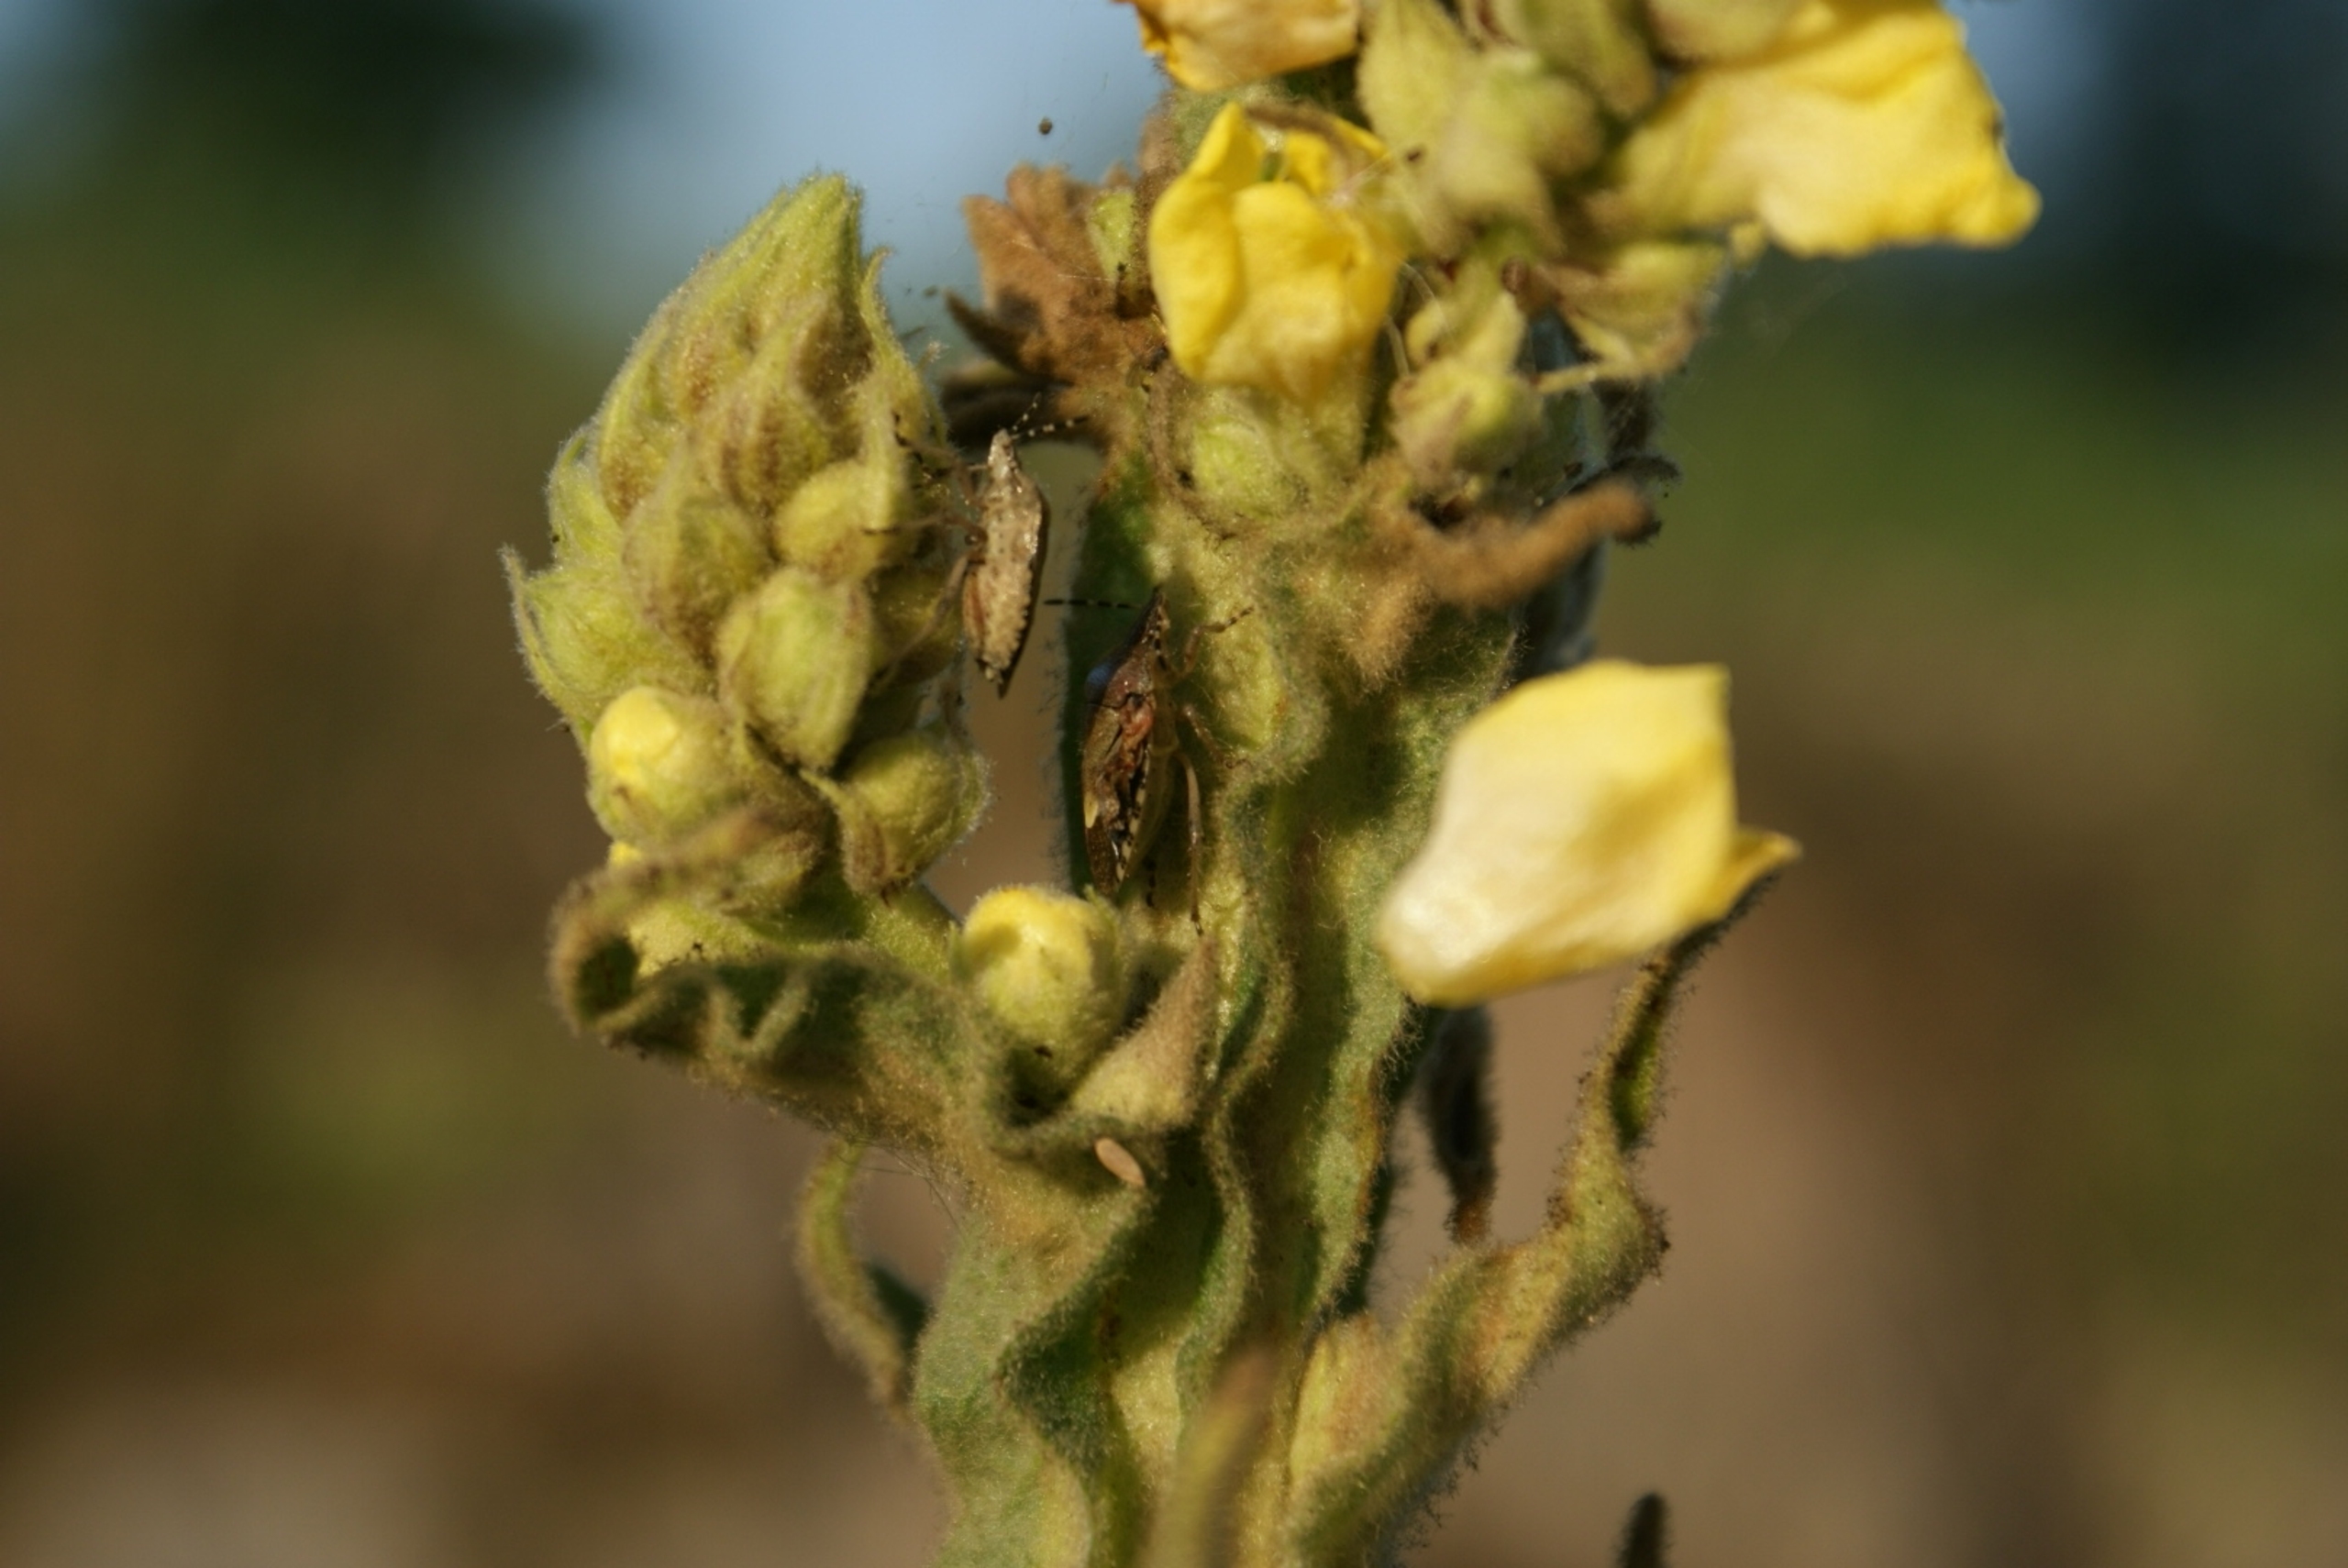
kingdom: Animalia
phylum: Arthropoda
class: Insecta
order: Hemiptera
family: Pentatomidae
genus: Dolycoris
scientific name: Dolycoris baccarum
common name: Almindelig bærtæge
